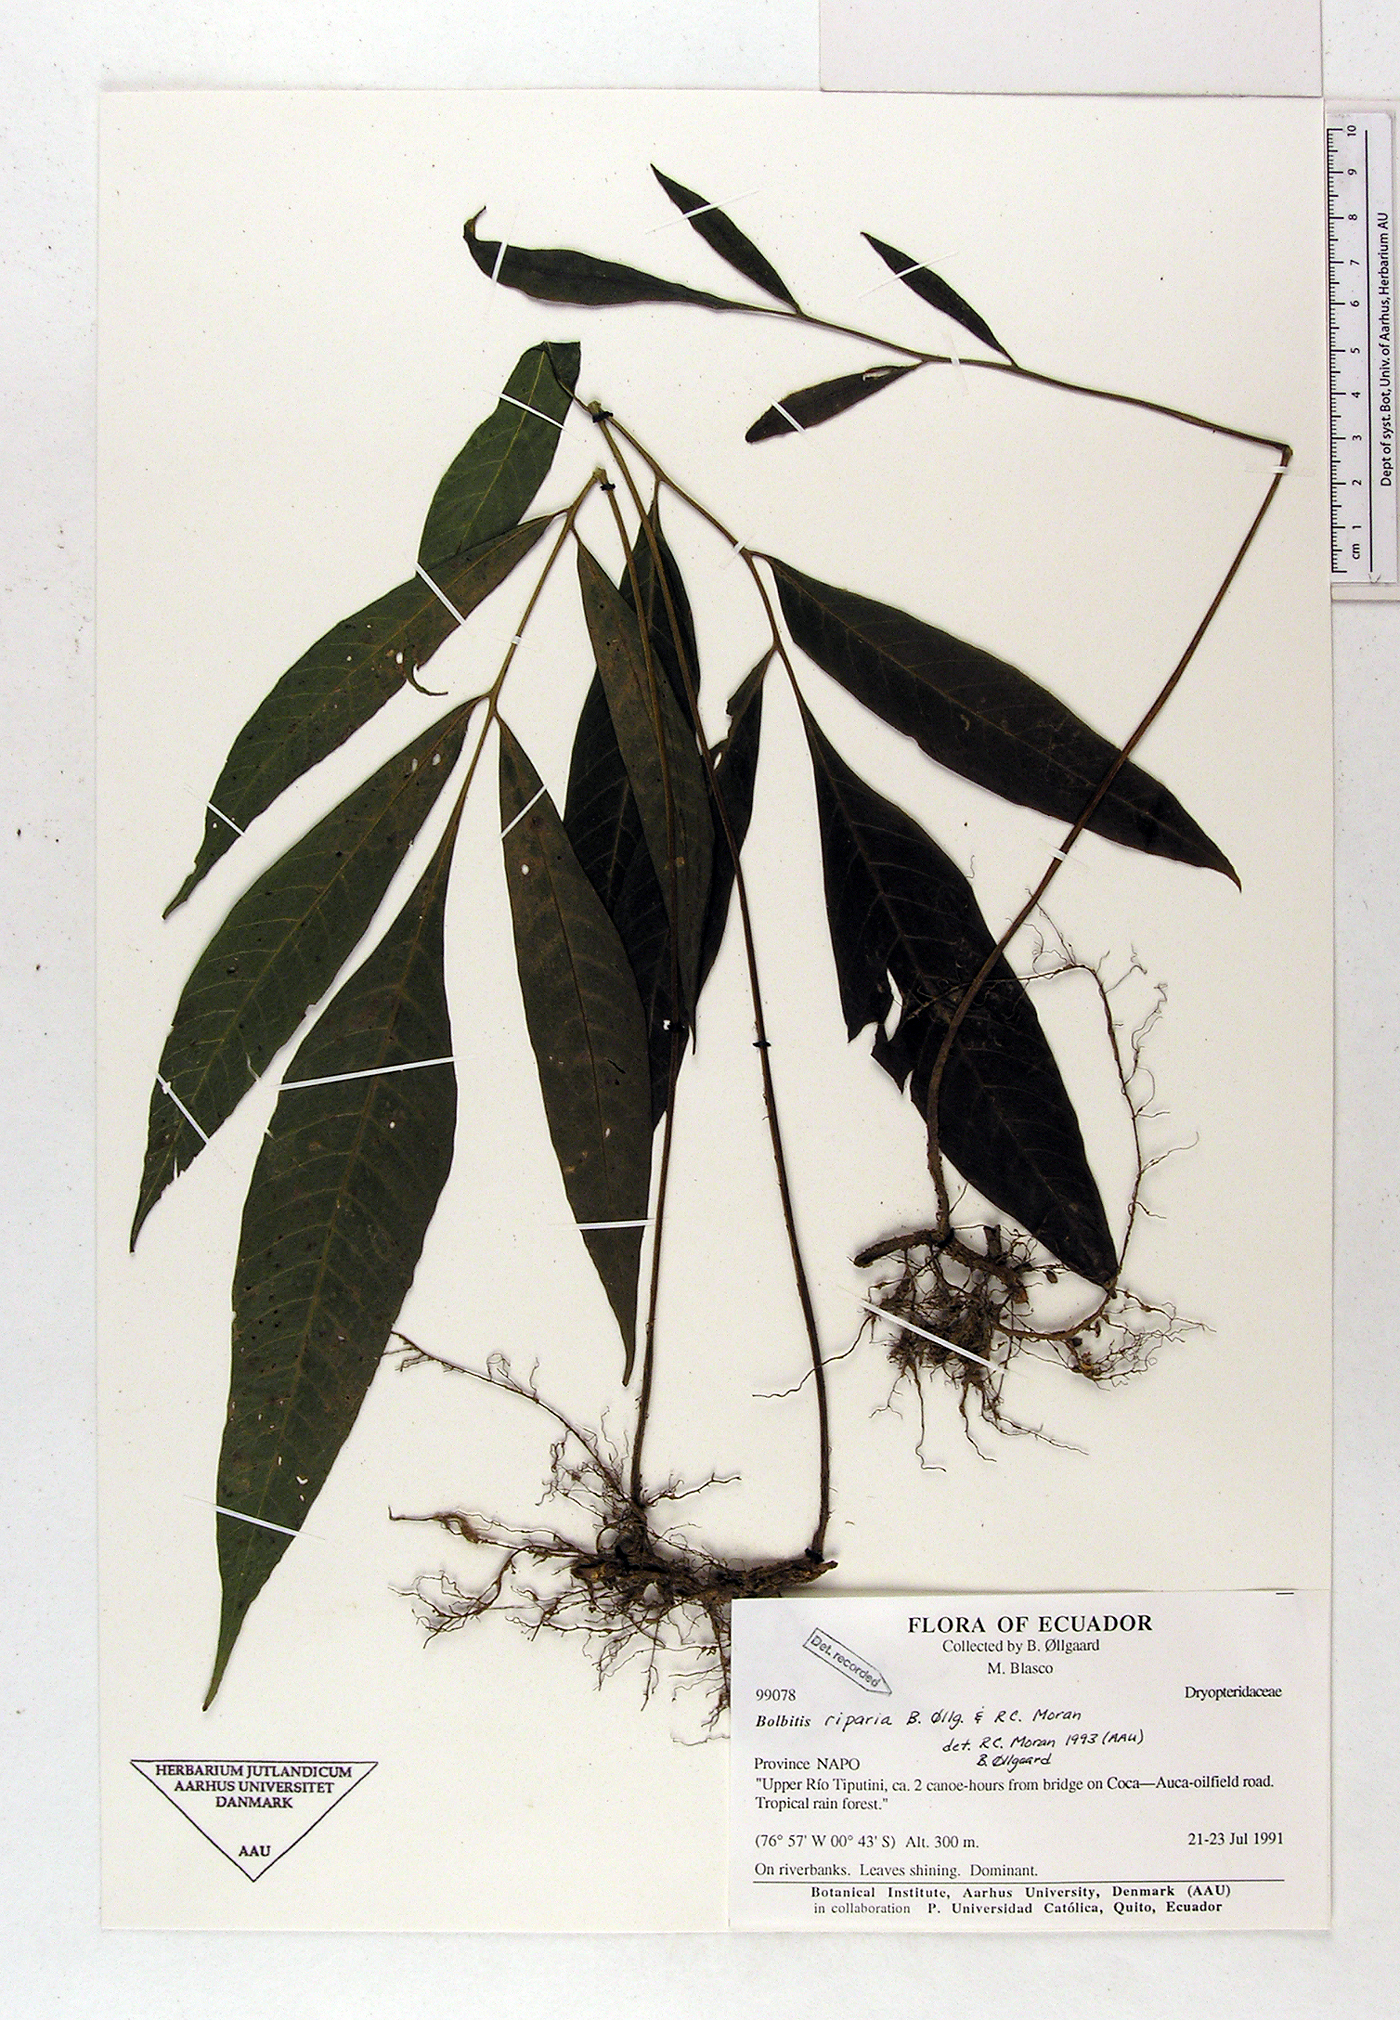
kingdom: Plantae
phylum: Tracheophyta
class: Polypodiopsida
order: Polypodiales
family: Dryopteridaceae
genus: Mickelia
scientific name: Mickelia nicotianifolia
